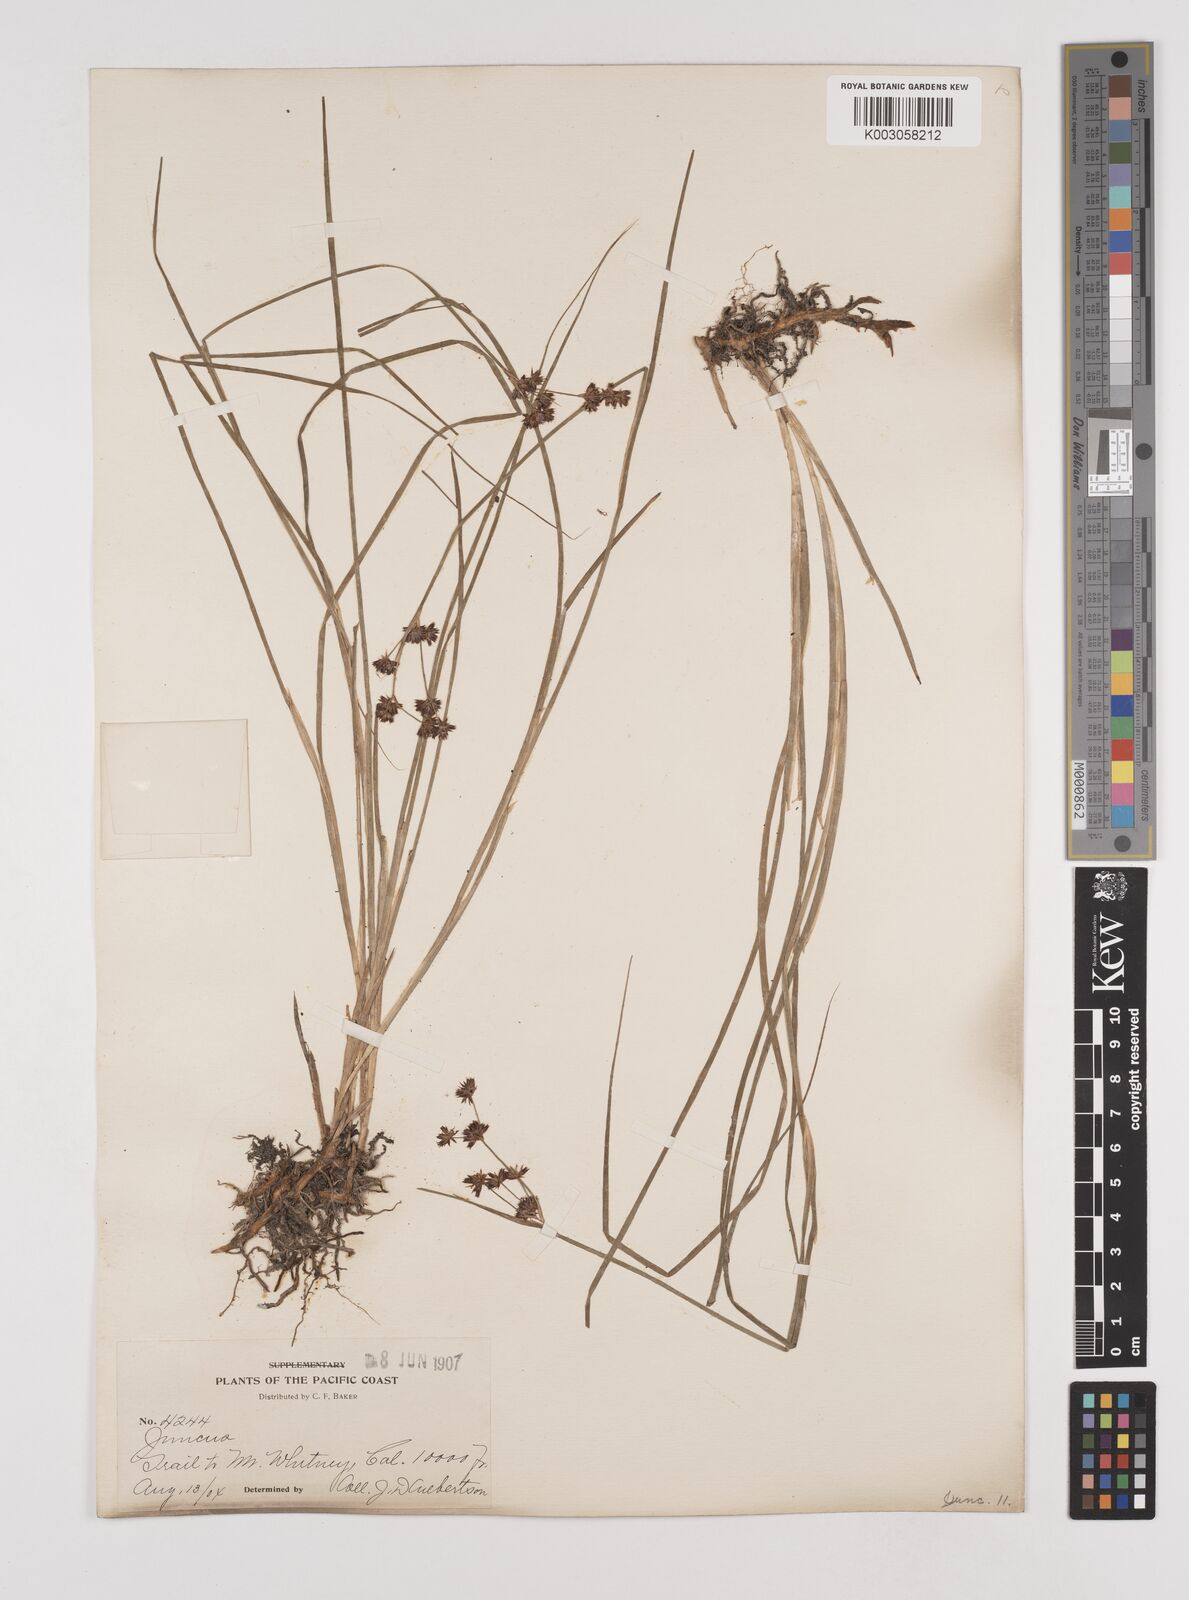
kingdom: Plantae
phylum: Tracheophyta
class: Liliopsida
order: Poales
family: Juncaceae
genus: Juncus
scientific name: Juncus
